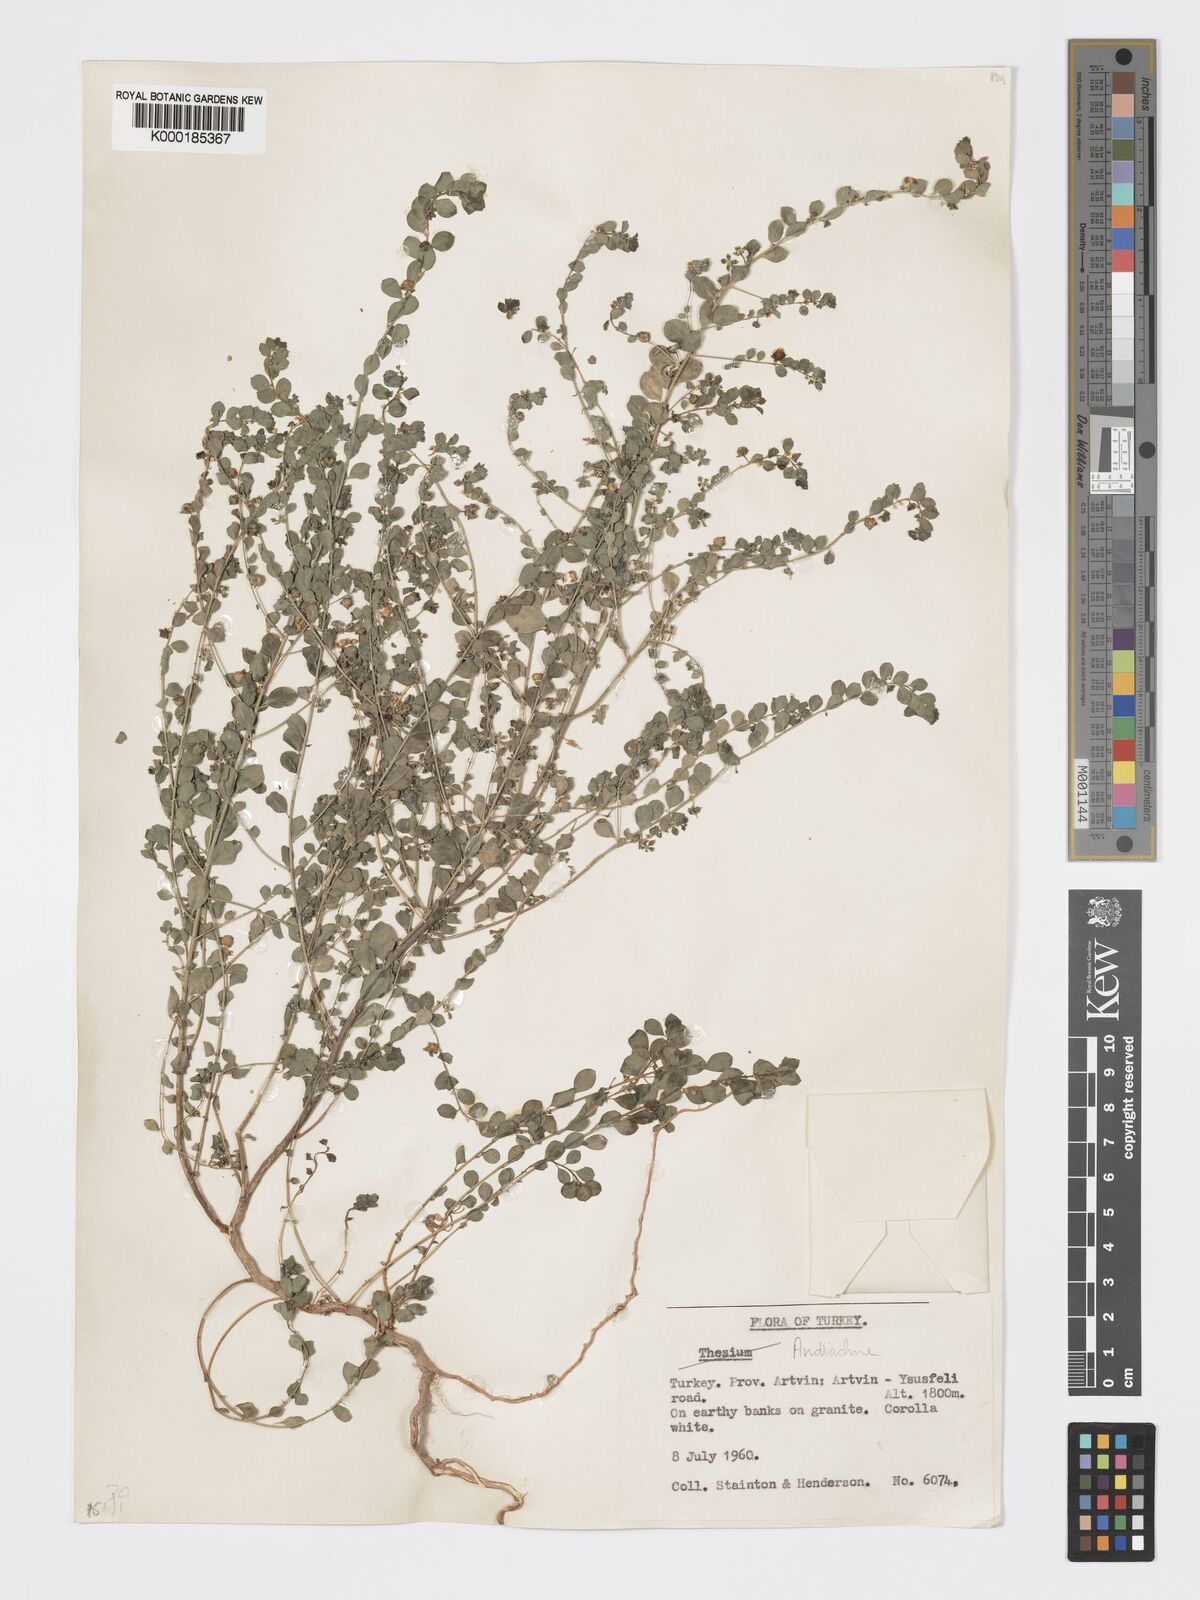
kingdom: Plantae
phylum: Tracheophyta
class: Magnoliopsida
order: Malpighiales
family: Phyllanthaceae
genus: Andrachne
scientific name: Andrachne telephioides
